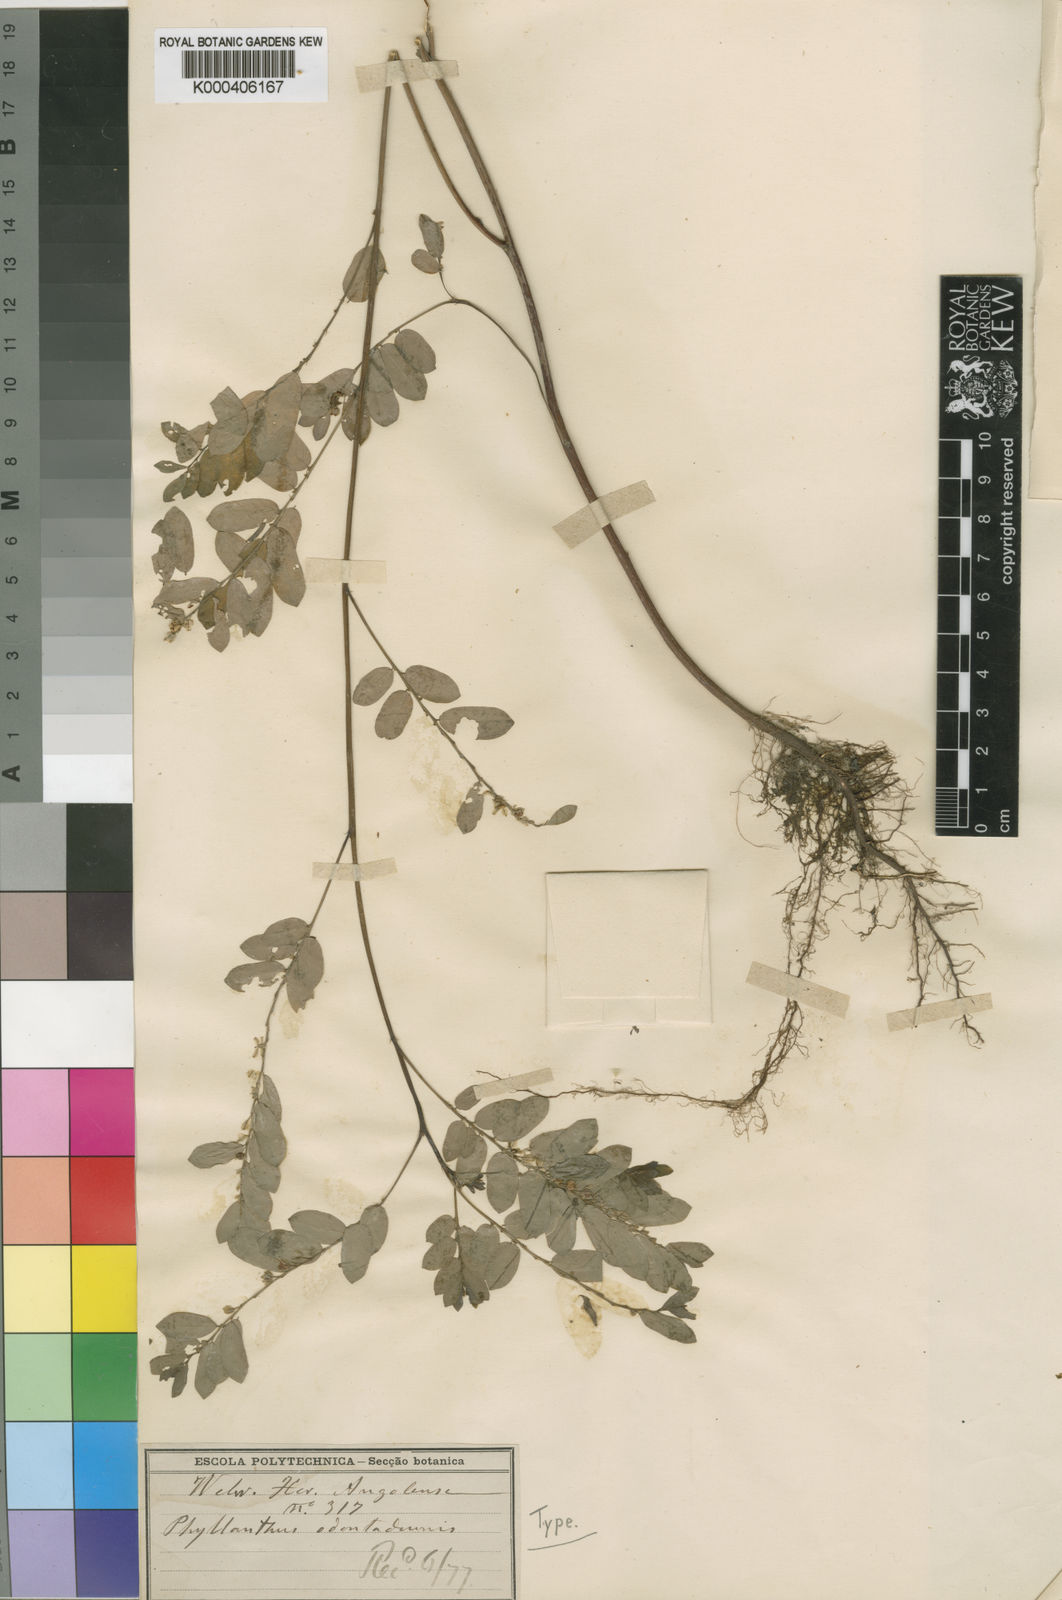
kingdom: Plantae
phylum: Tracheophyta
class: Magnoliopsida
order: Malpighiales
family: Phyllanthaceae
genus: Phyllanthus
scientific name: Phyllanthus
